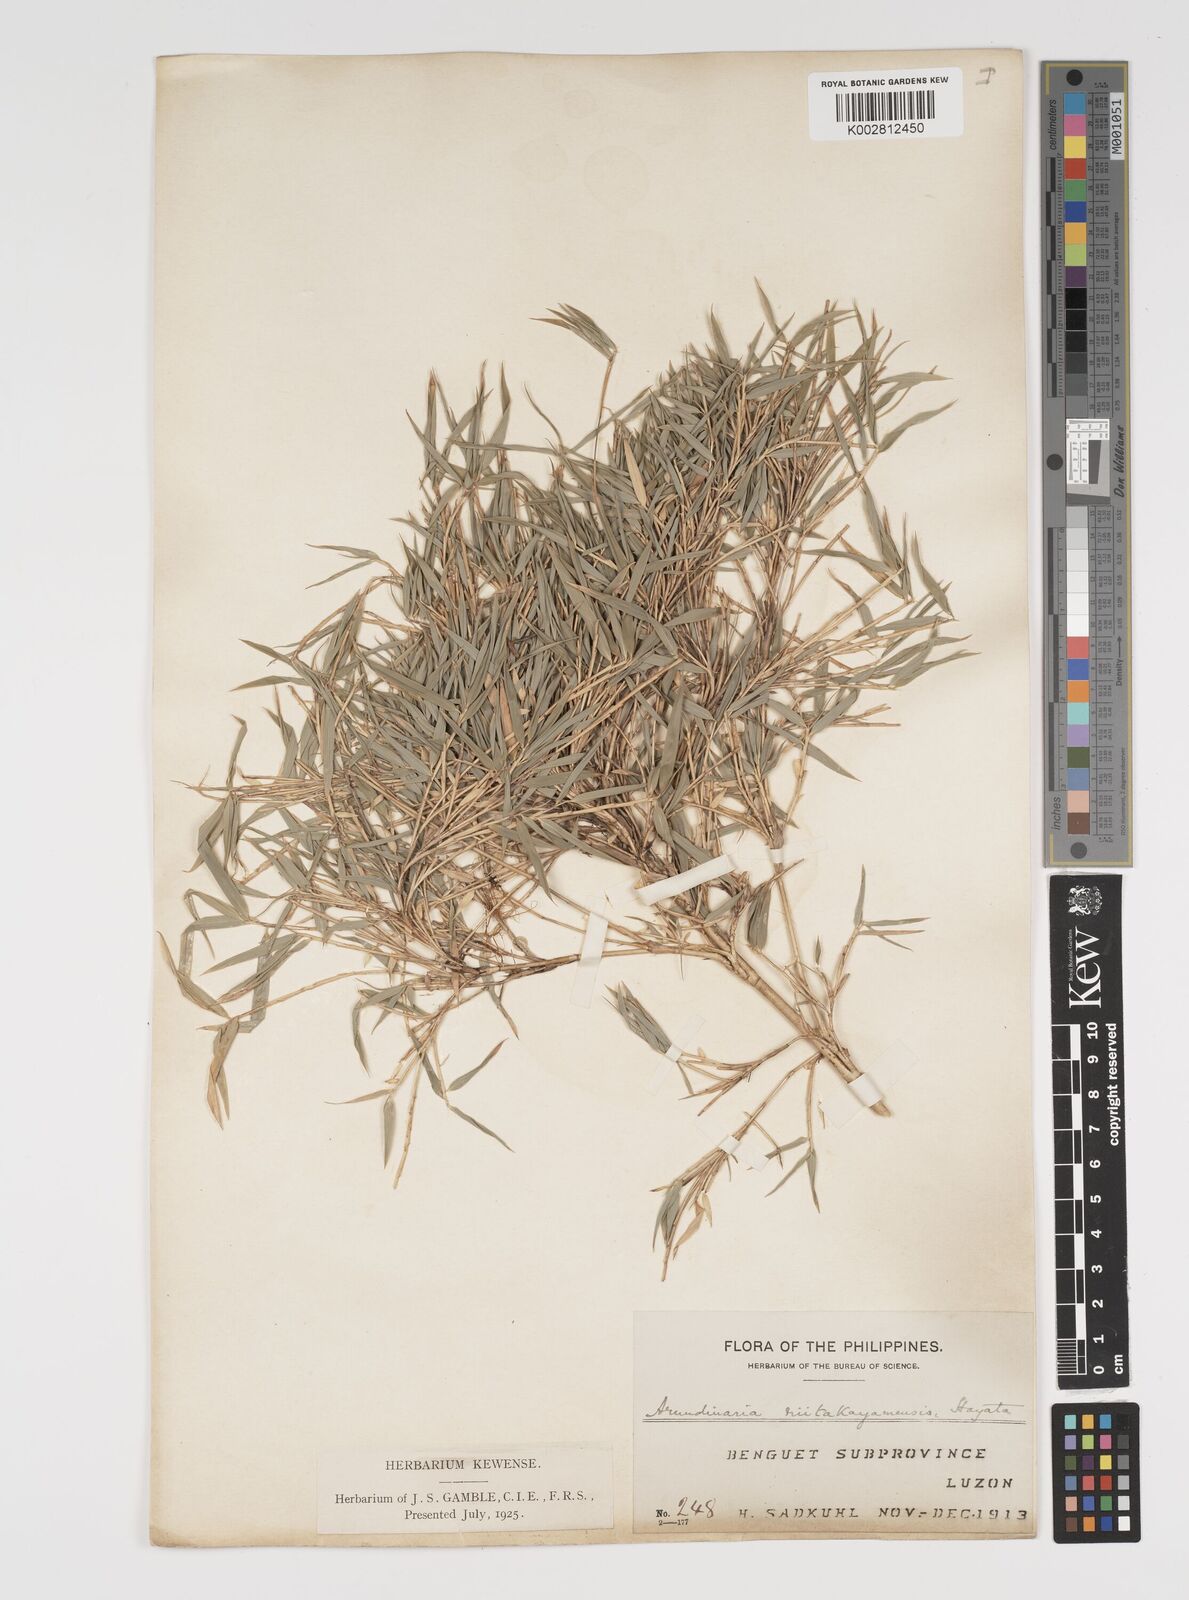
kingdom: Plantae
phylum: Tracheophyta
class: Liliopsida
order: Poales
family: Poaceae
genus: Yushania
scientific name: Yushania niitakayamensis
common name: Yushan cane
